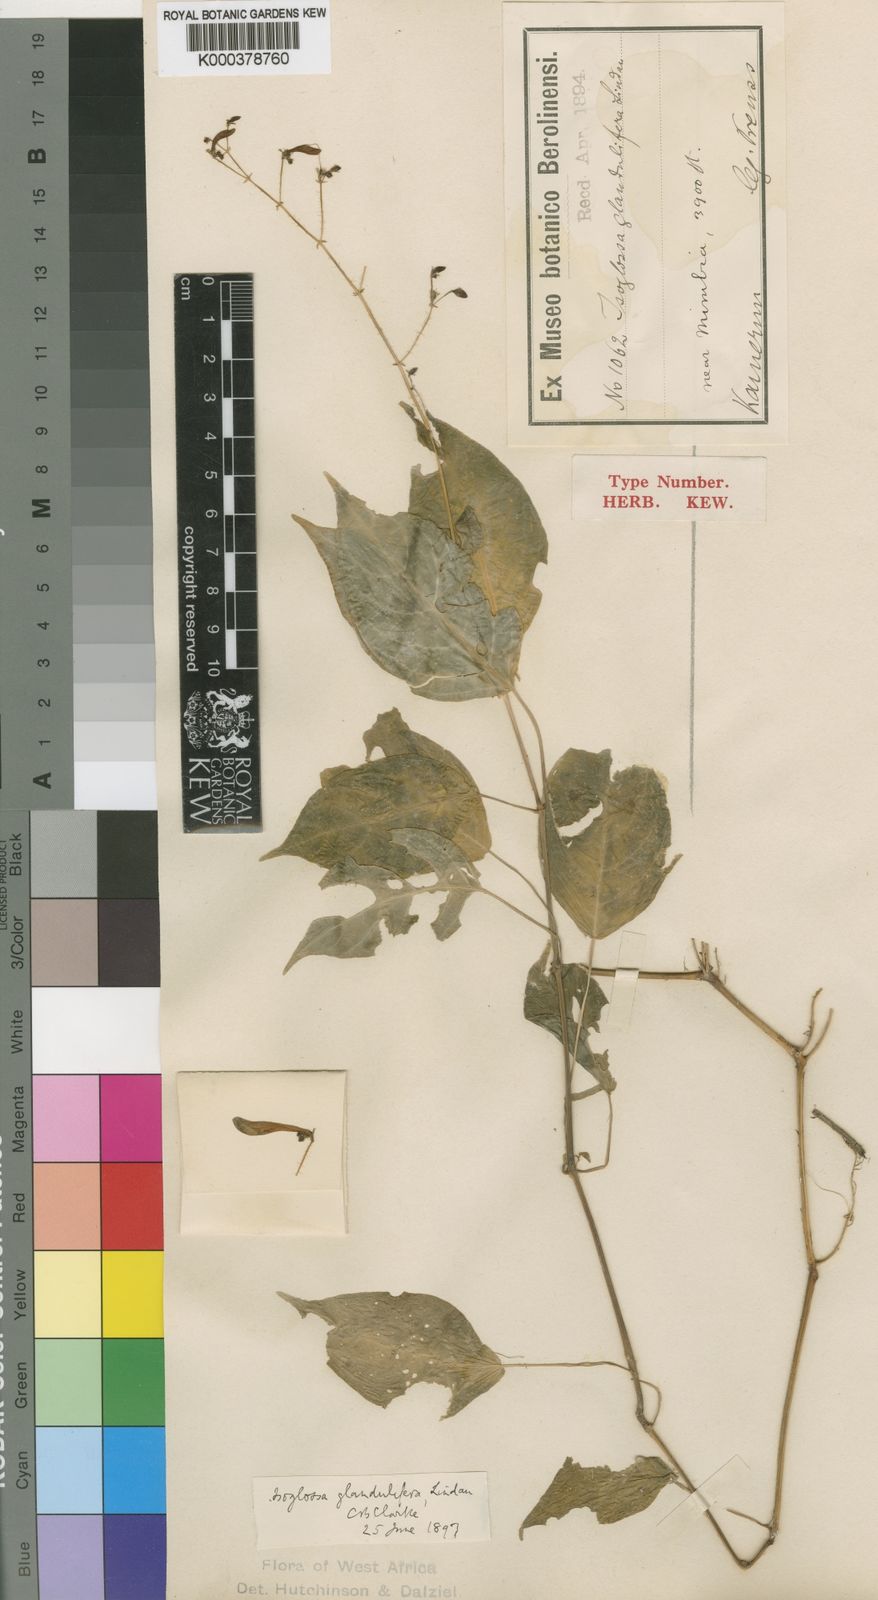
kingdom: Plantae
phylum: Tracheophyta
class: Magnoliopsida
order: Lamiales
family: Acanthaceae
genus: Isoglossa
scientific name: Isoglossa glandulifera
